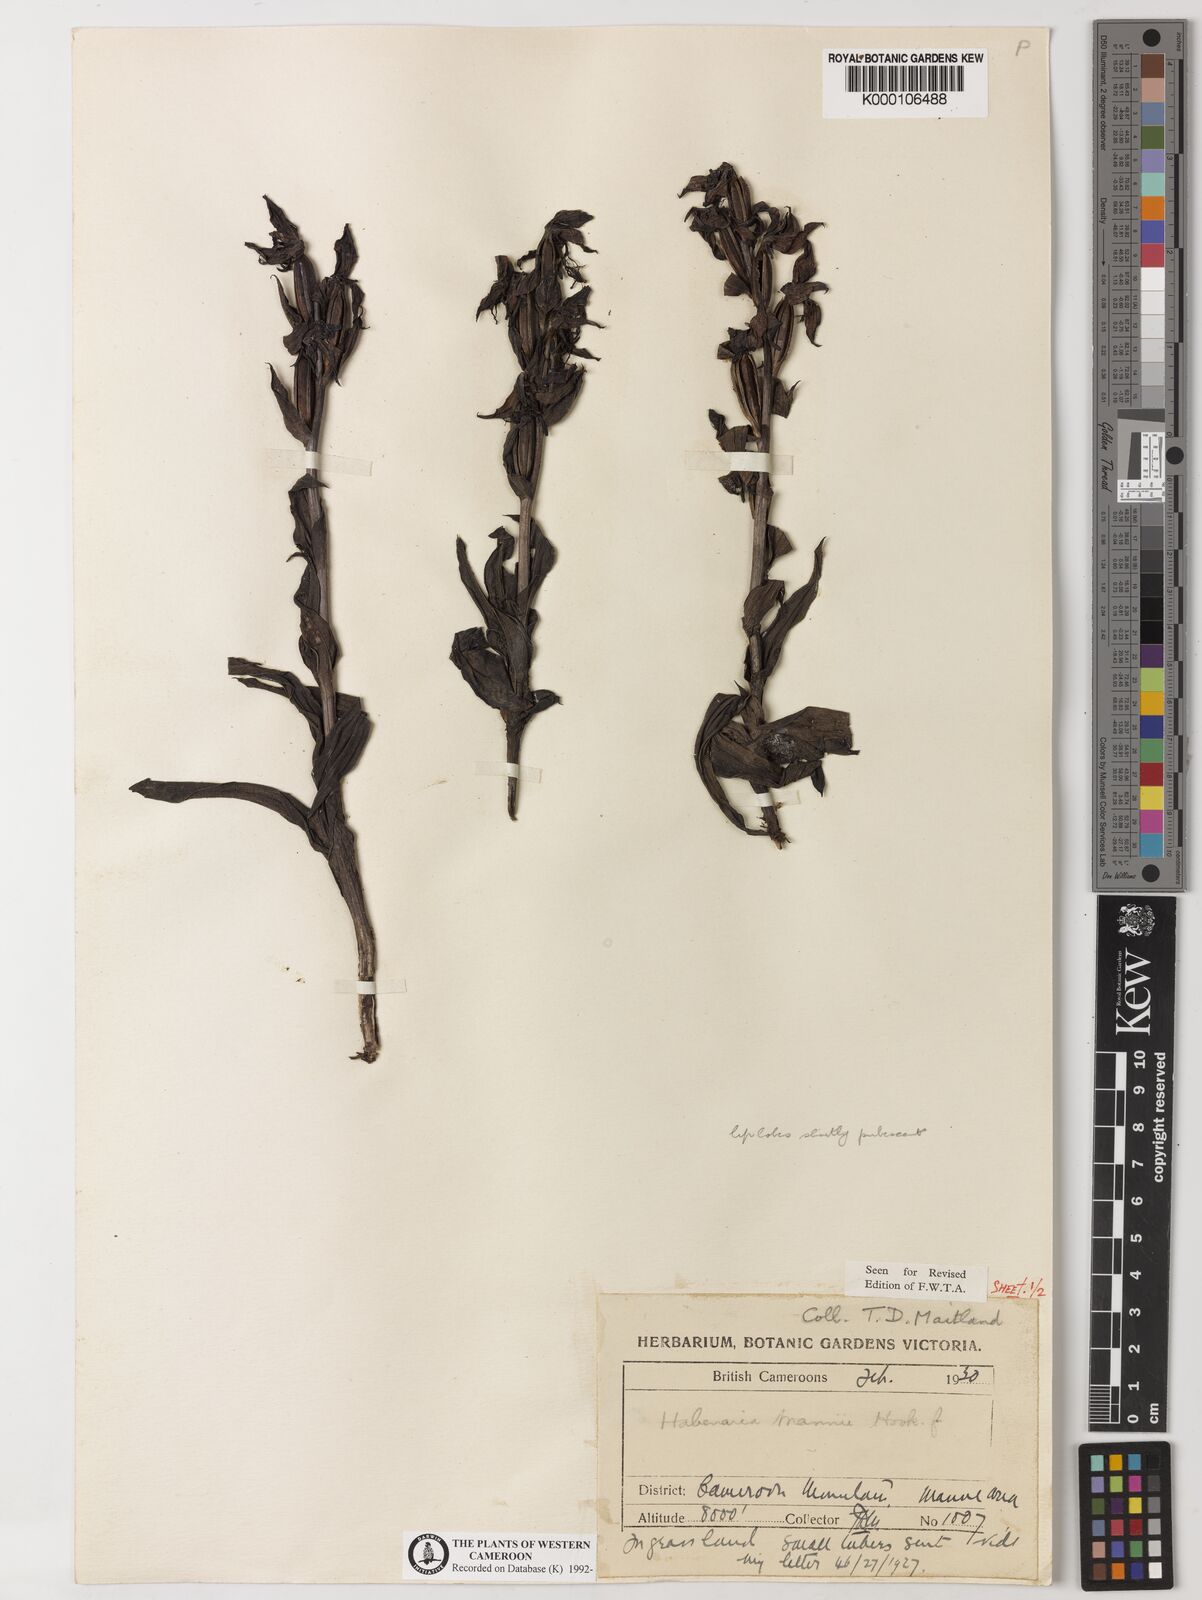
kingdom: Plantae
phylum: Tracheophyta
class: Liliopsida
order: Asparagales
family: Orchidaceae
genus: Habenaria
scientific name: Habenaria mannii
